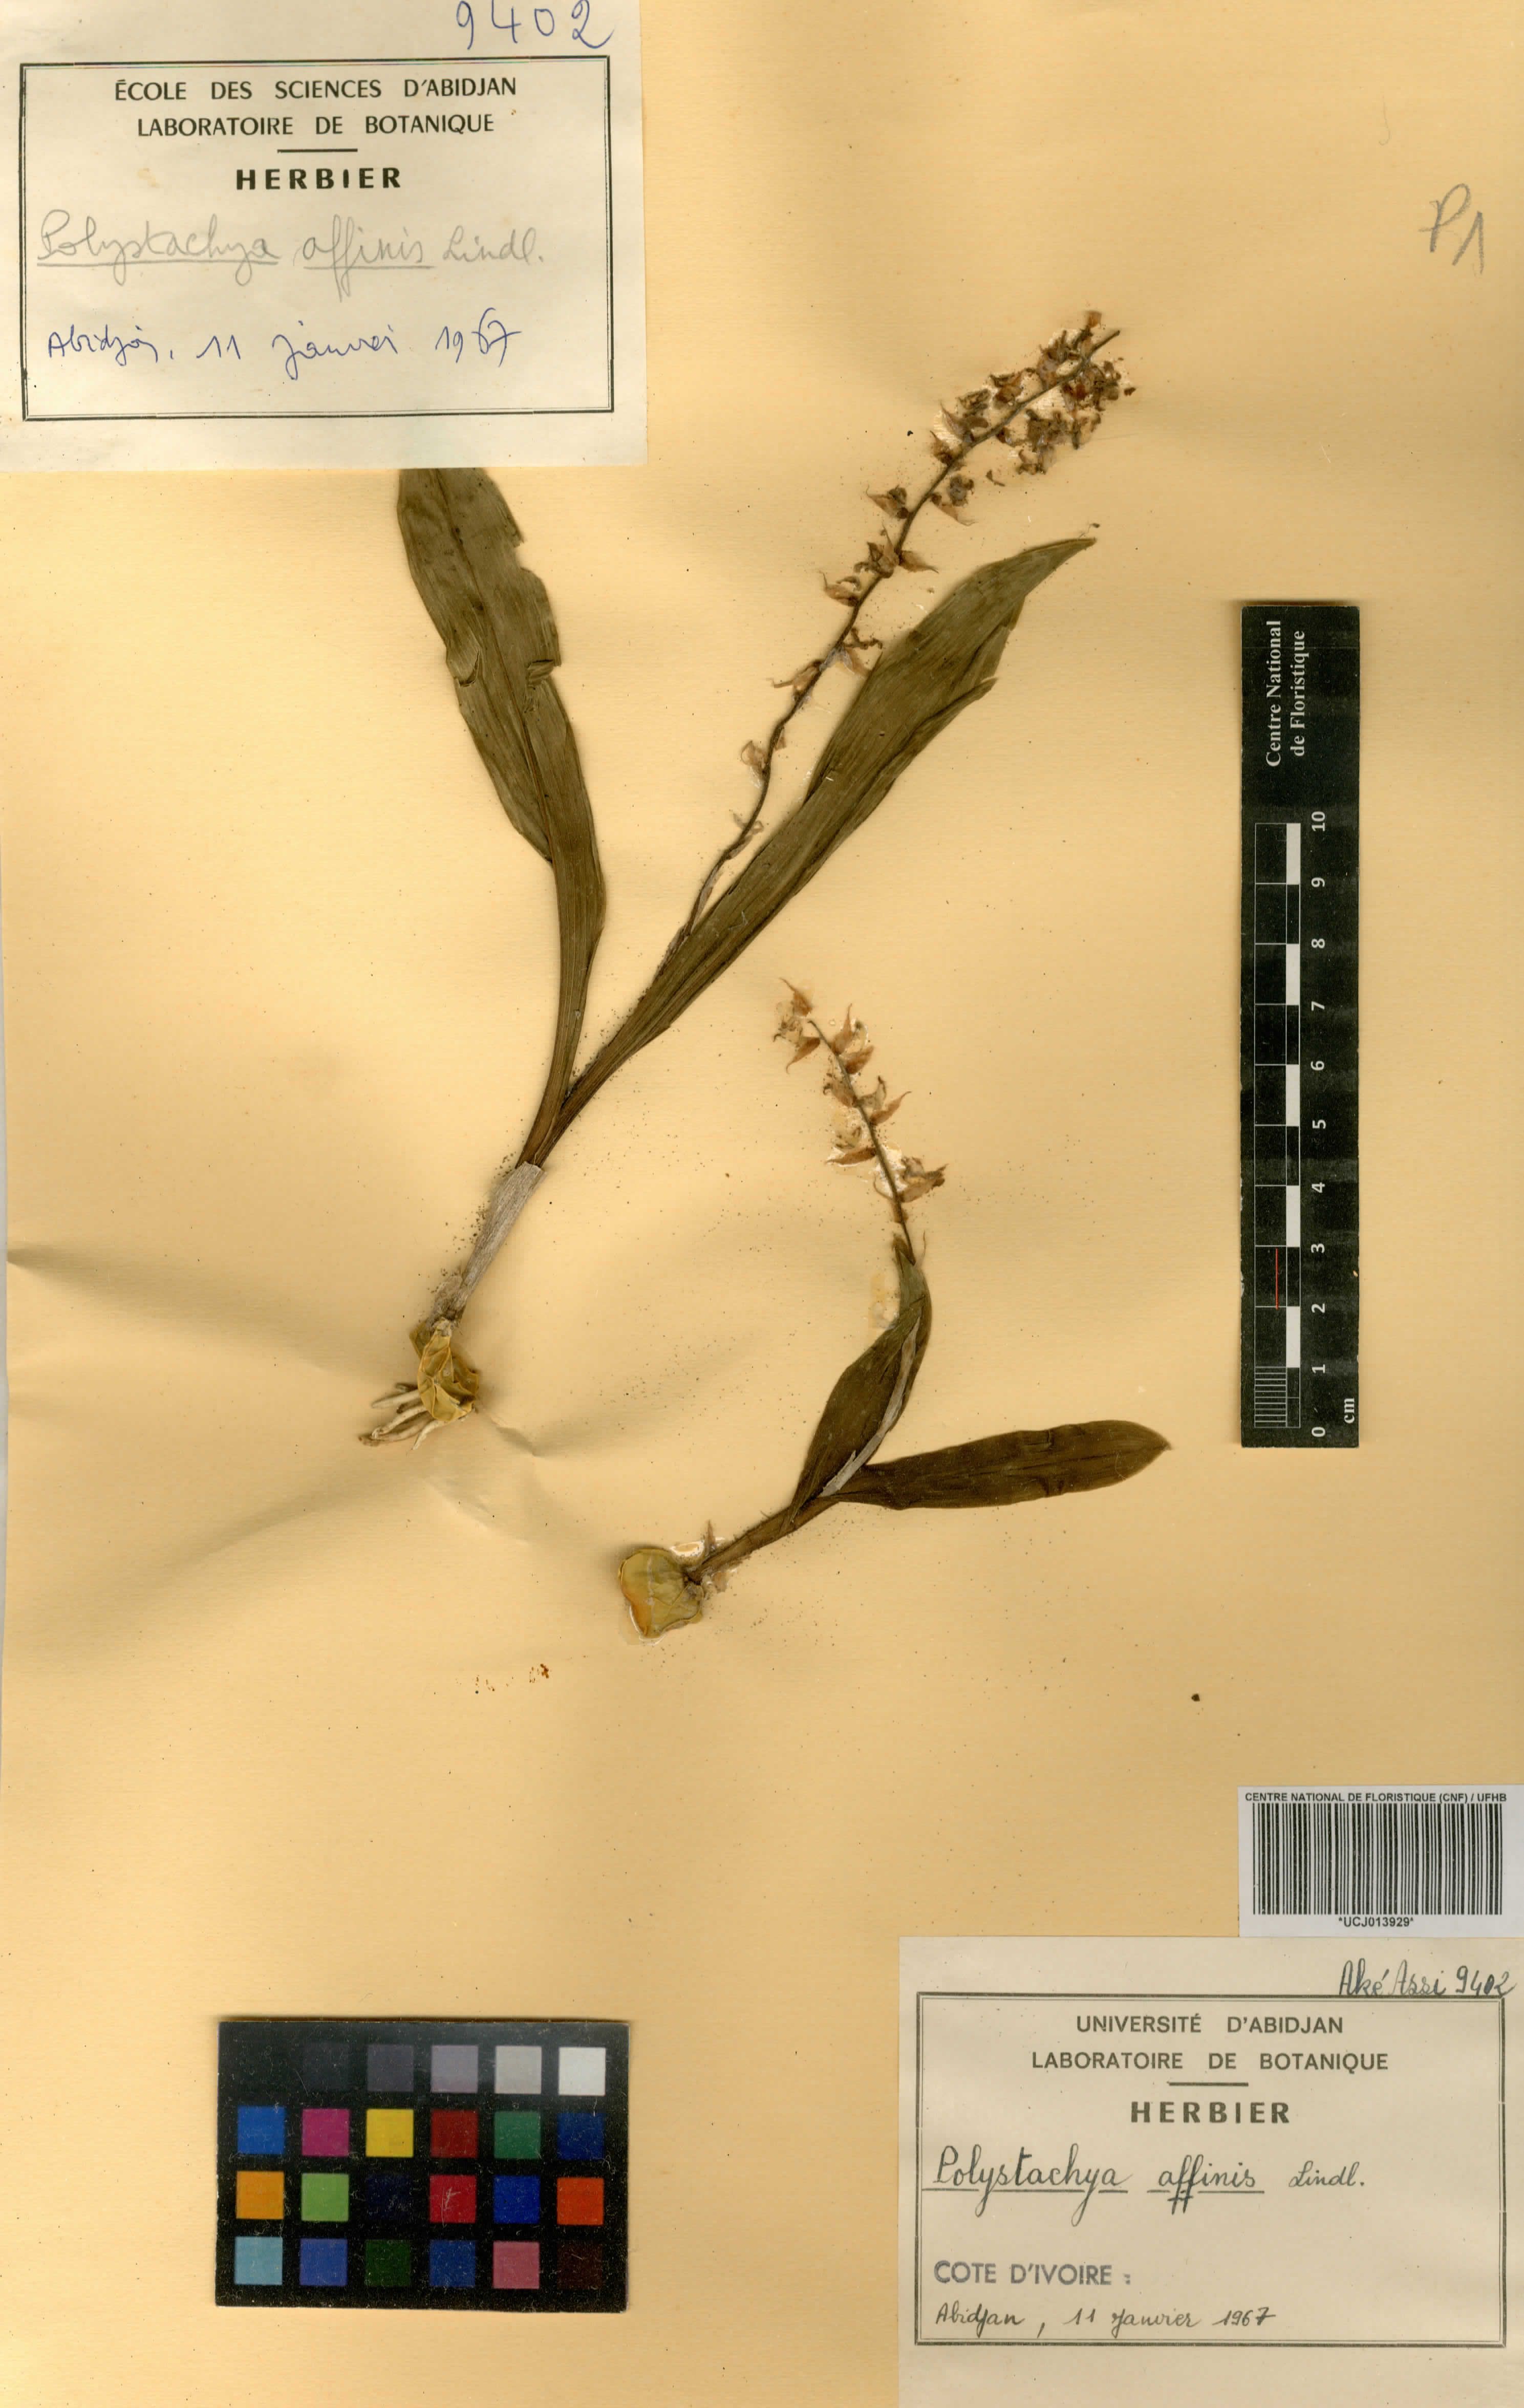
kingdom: Plantae
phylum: Tracheophyta
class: Liliopsida
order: Asparagales
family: Orchidaceae
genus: Polystachya
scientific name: Polystachya affinis
